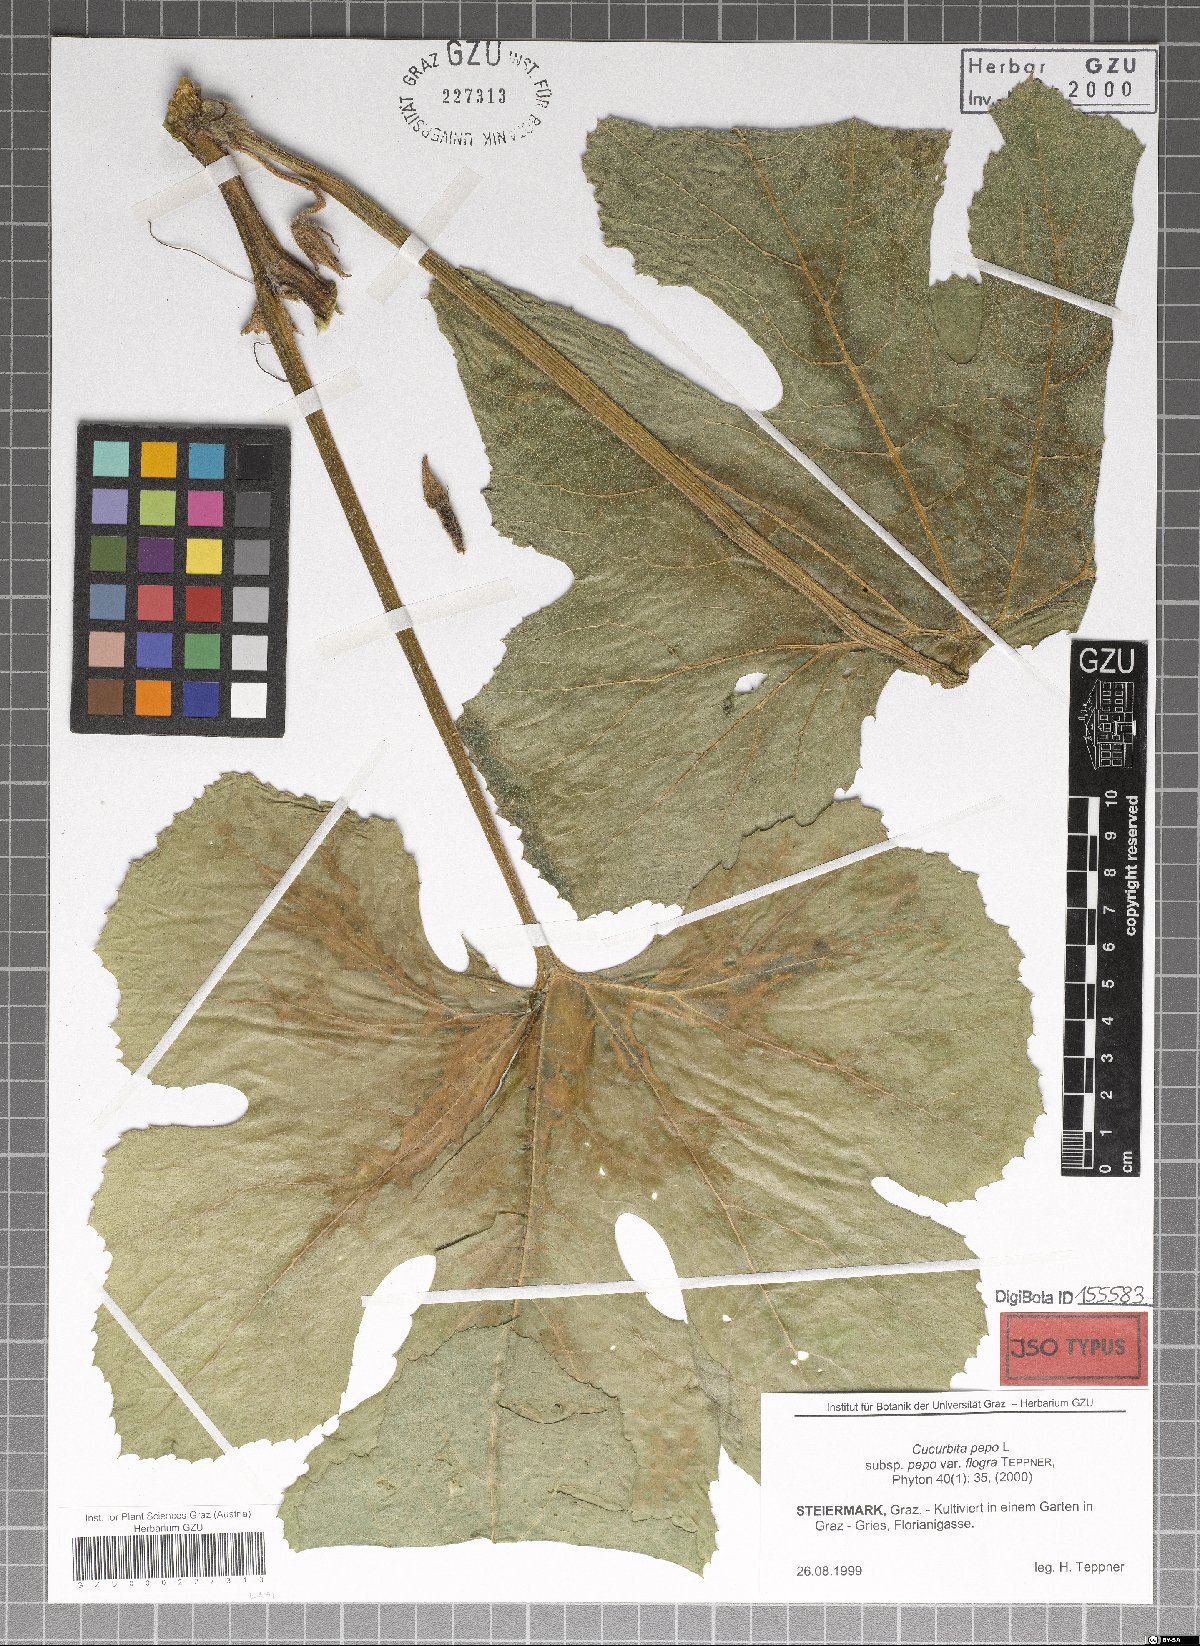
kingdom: Plantae
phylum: Tracheophyta
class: Magnoliopsida
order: Cucurbitales
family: Cucurbitaceae
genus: Cucurbita
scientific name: Cucurbita pepo
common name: Marrow
